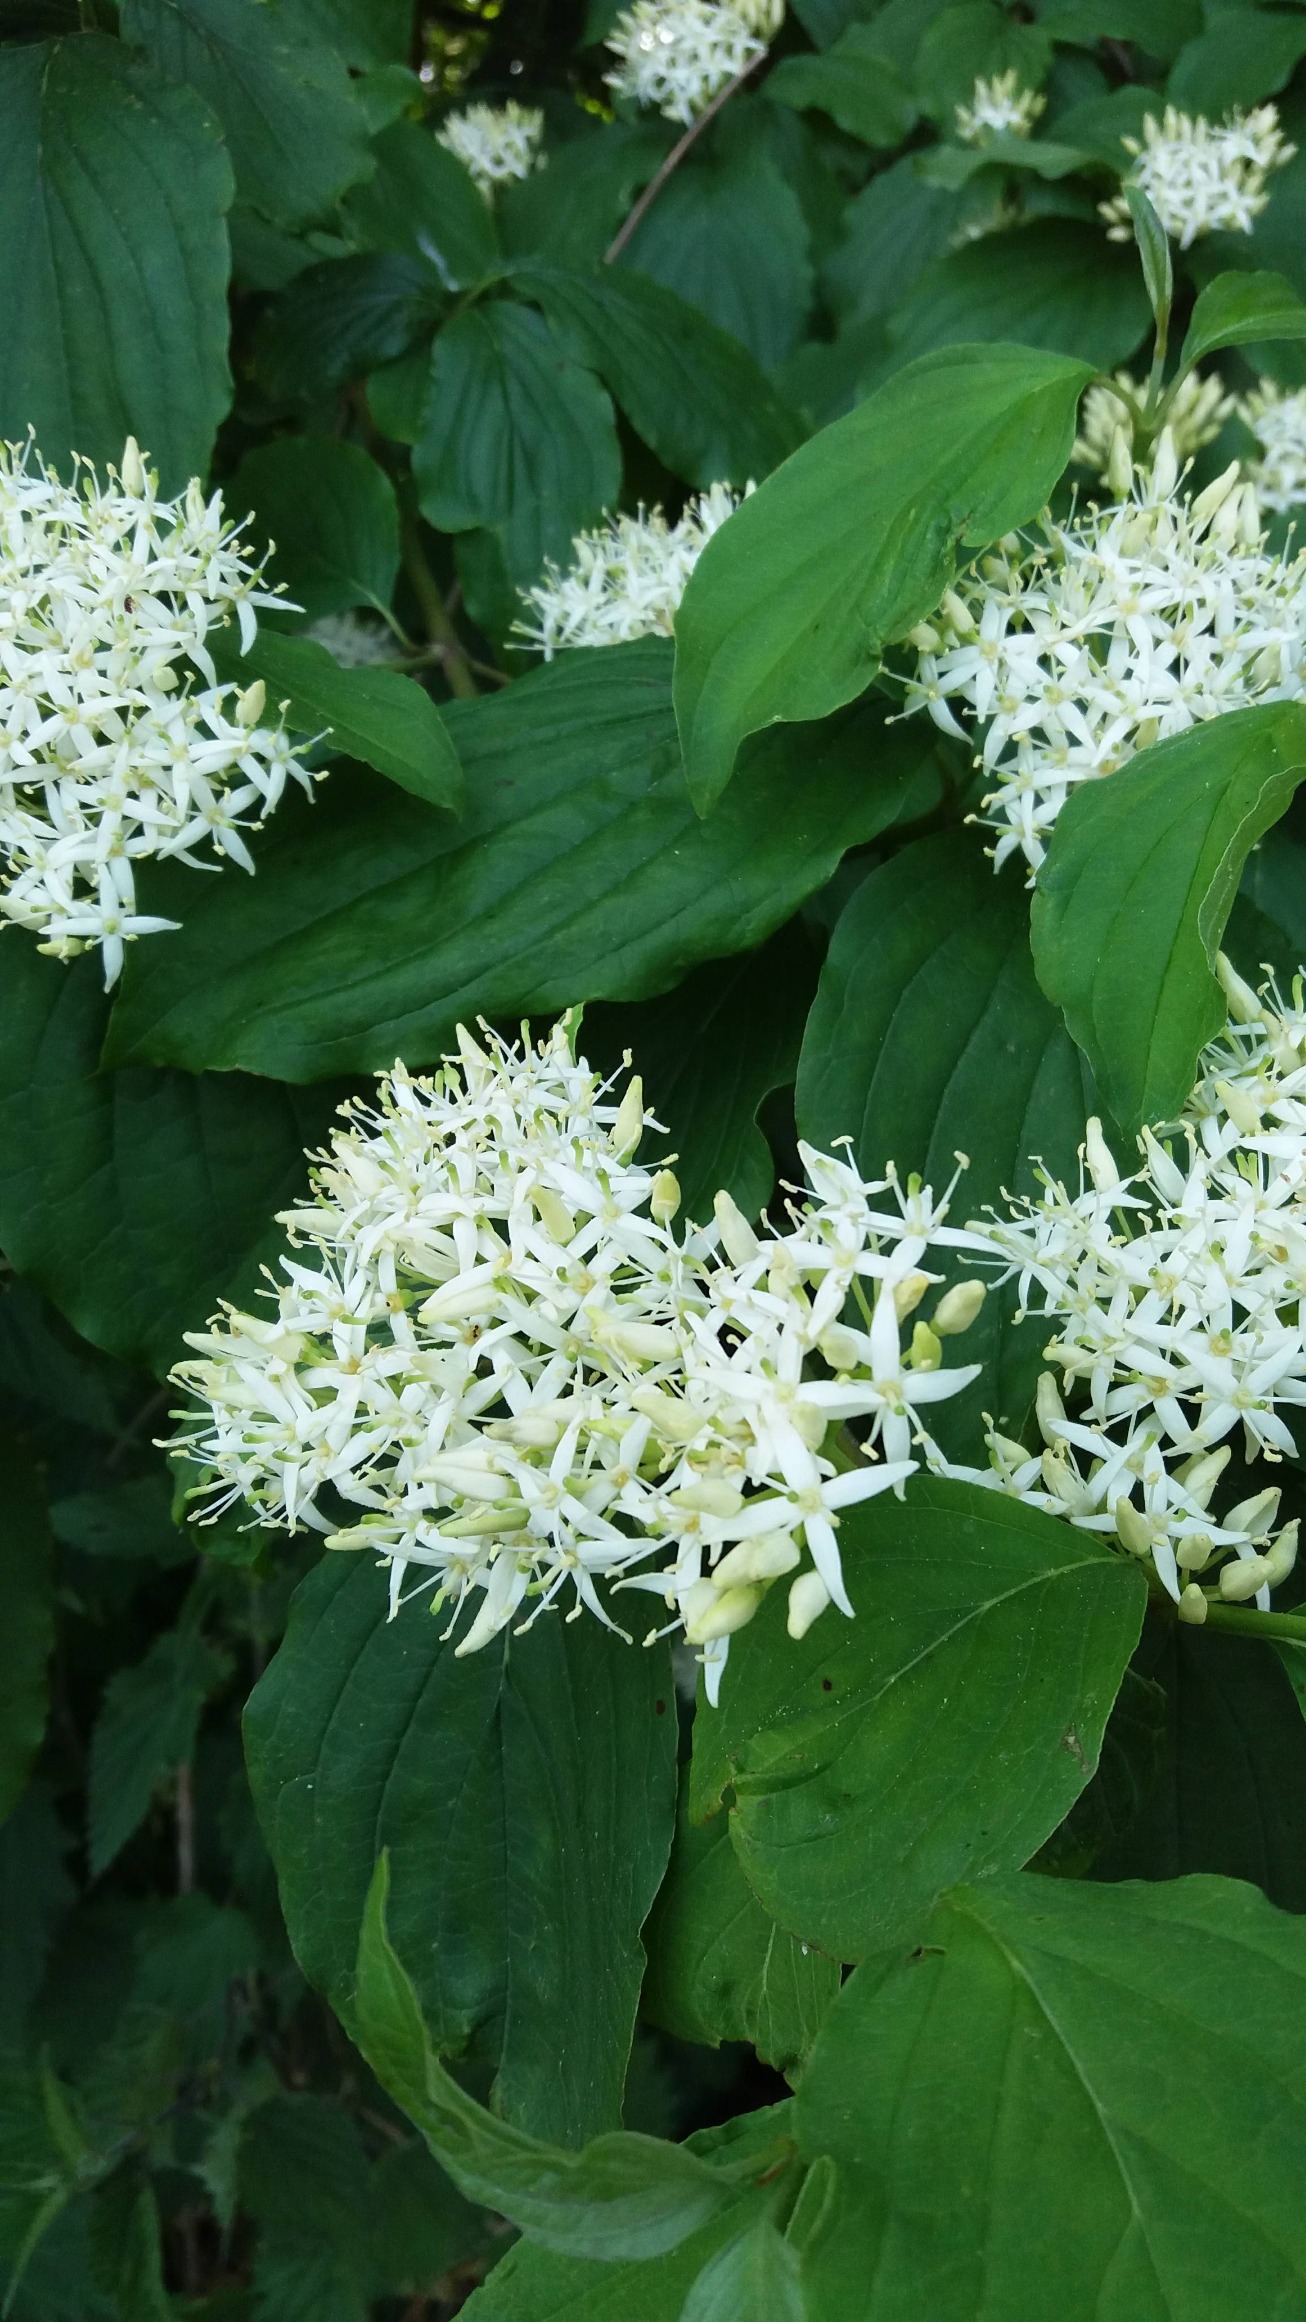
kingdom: Plantae
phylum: Tracheophyta
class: Magnoliopsida
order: Cornales
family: Cornaceae
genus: Cornus
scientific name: Cornus sanguinea
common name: Rød kornel
